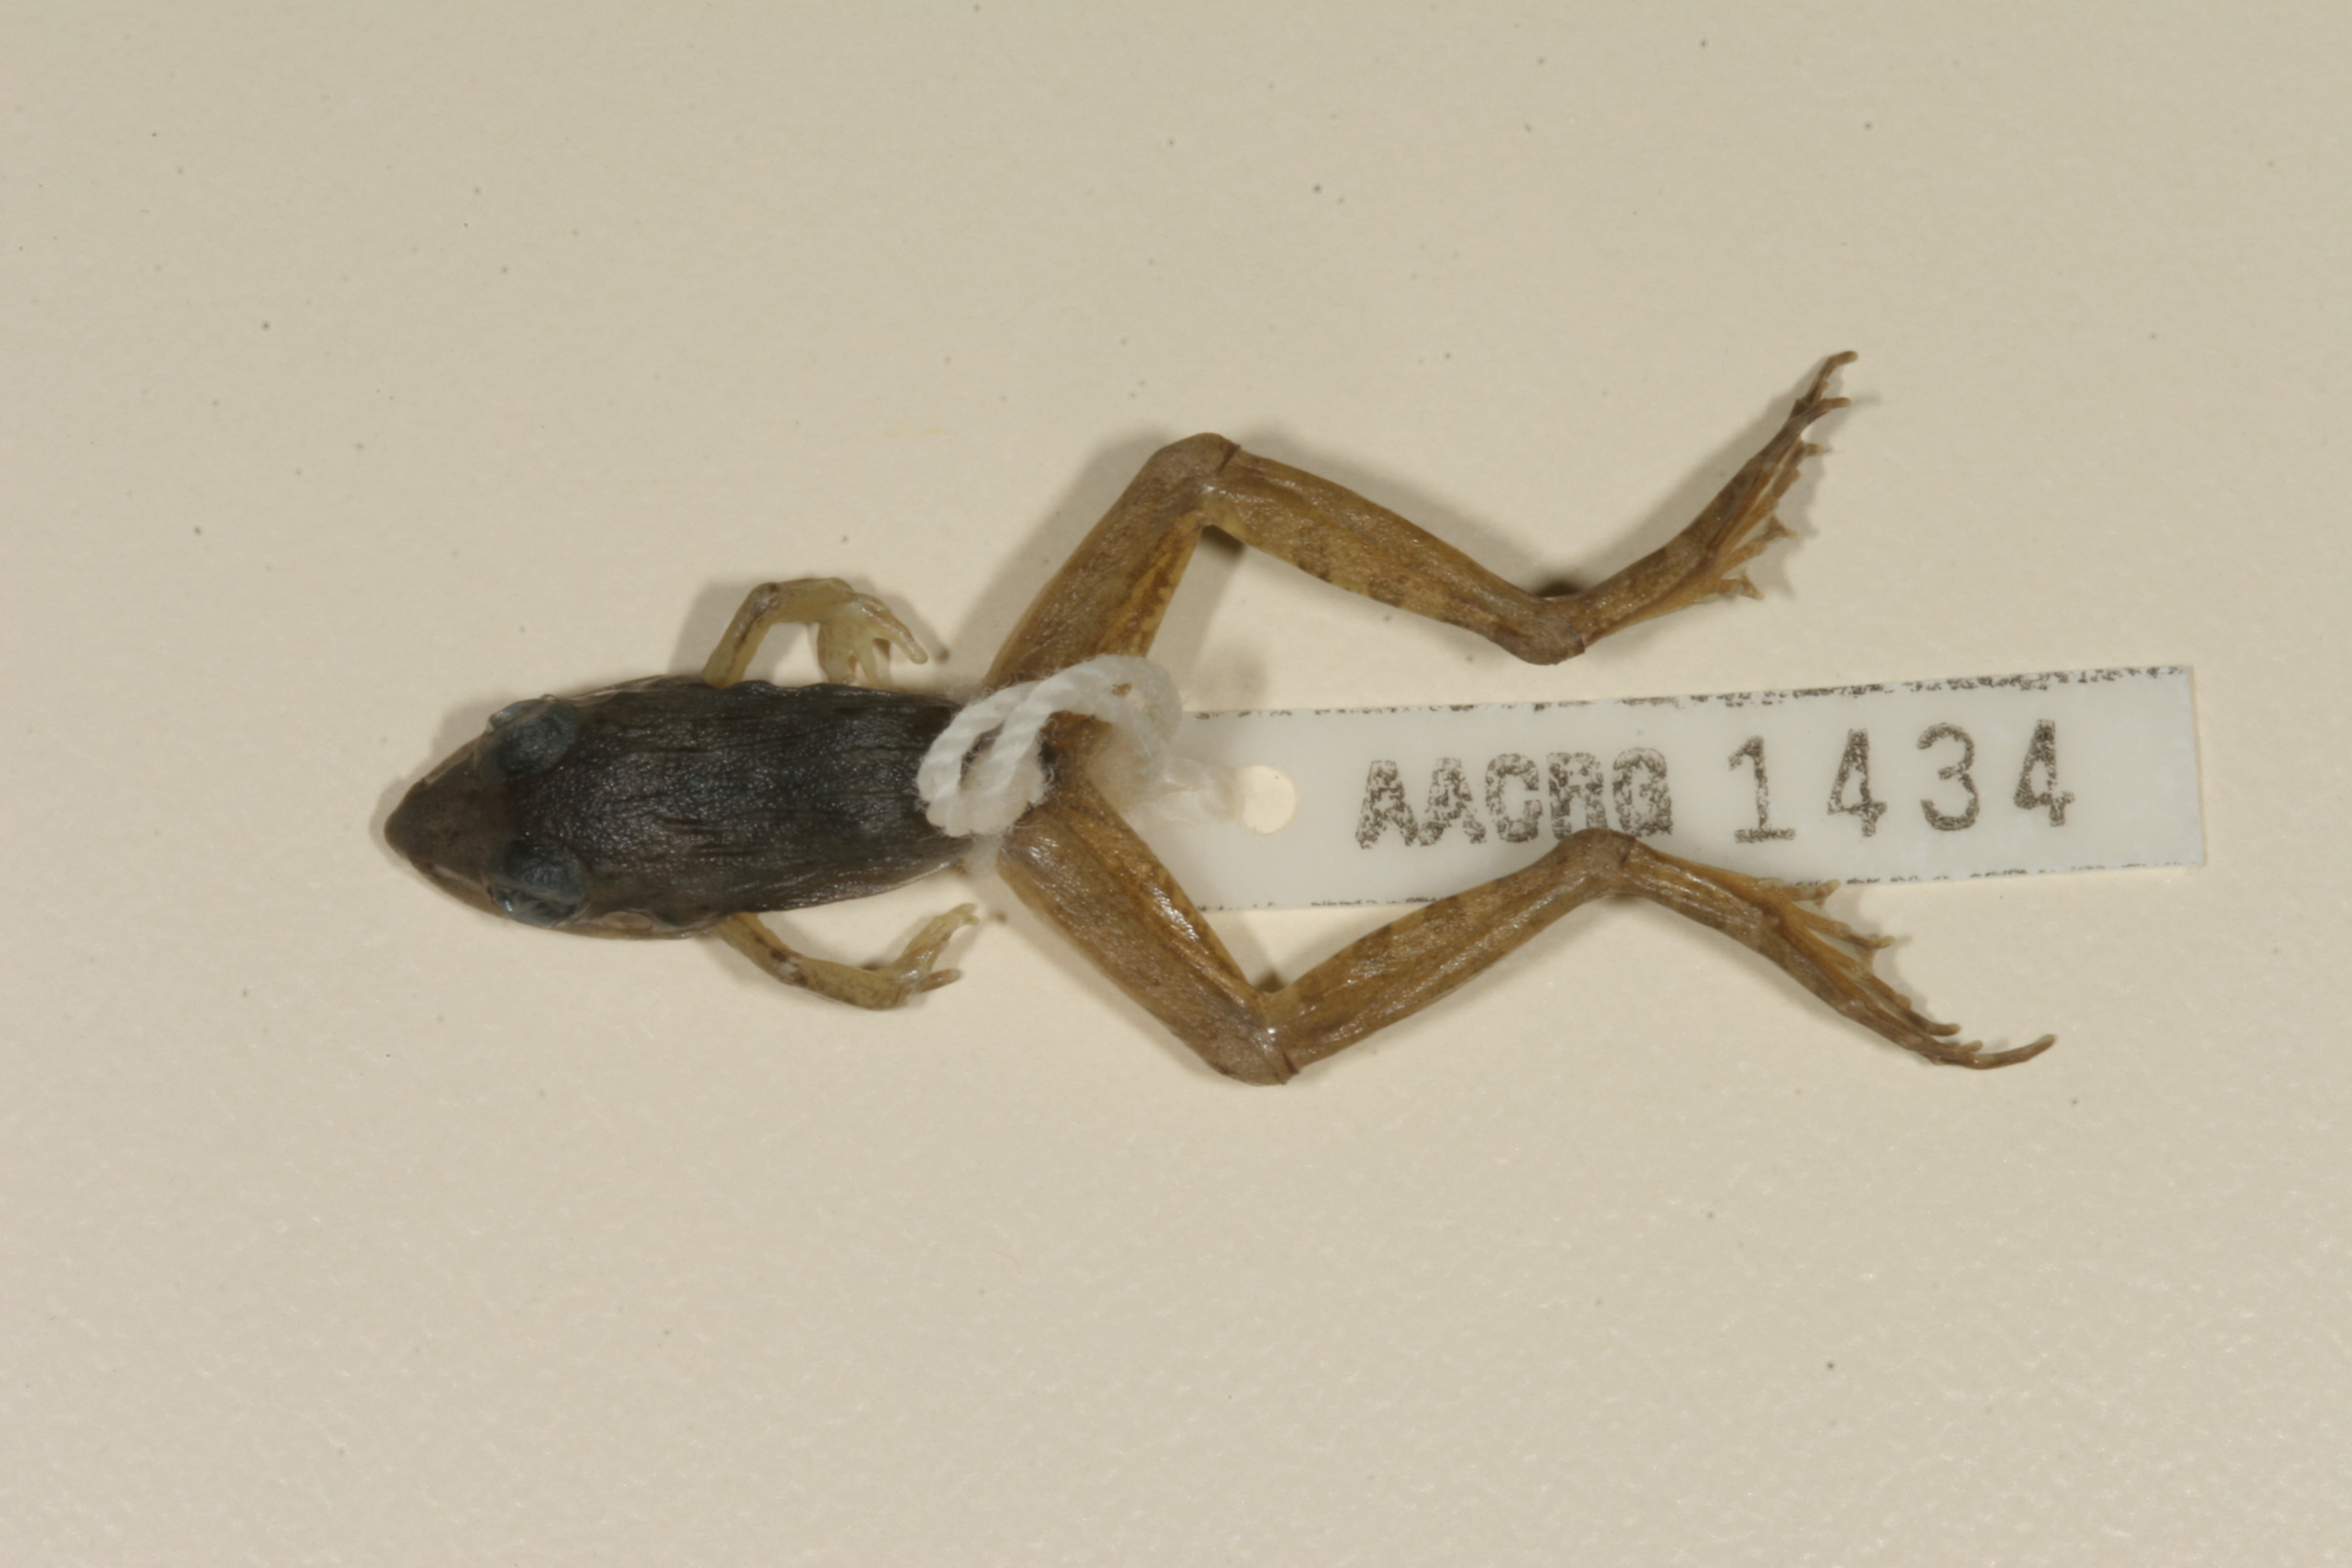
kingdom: Animalia
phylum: Chordata
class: Amphibia
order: Anura
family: Ptychadenidae
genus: Ptychadena
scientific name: Ptychadena anchietae
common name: Anchieta's ridged frog
